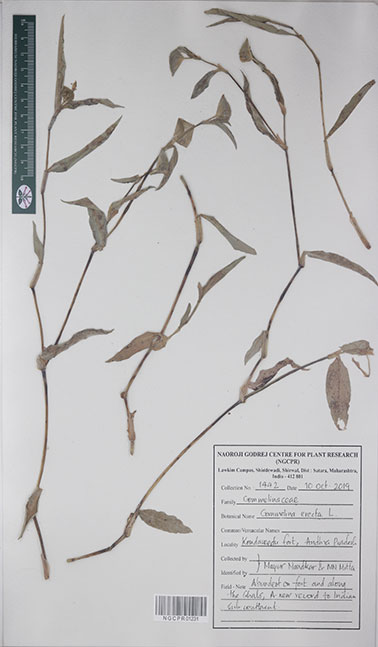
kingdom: Plantae
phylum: Tracheophyta
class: Liliopsida
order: Commelinales
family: Commelinaceae
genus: Commelina
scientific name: Commelina erecta
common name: Blousel blommetjie
